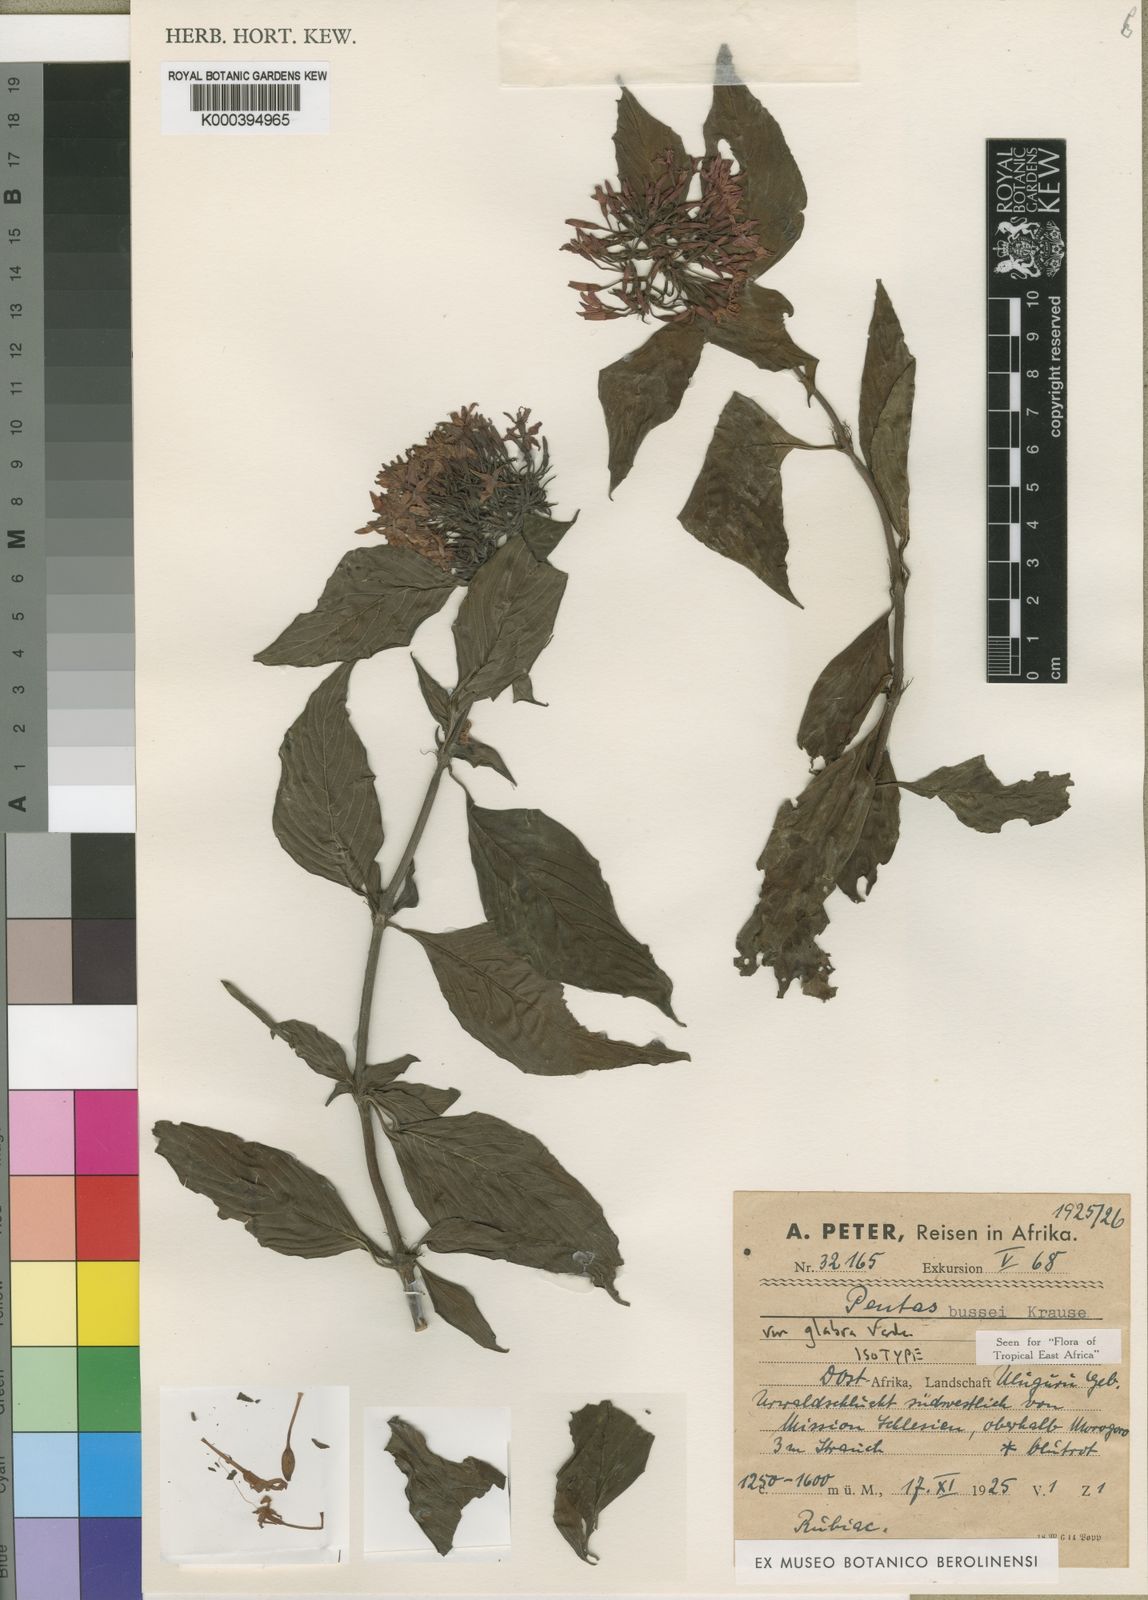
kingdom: Plantae
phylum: Tracheophyta
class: Magnoliopsida
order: Gentianales
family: Rubiaceae
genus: Rhodopentas
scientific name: Rhodopentas
